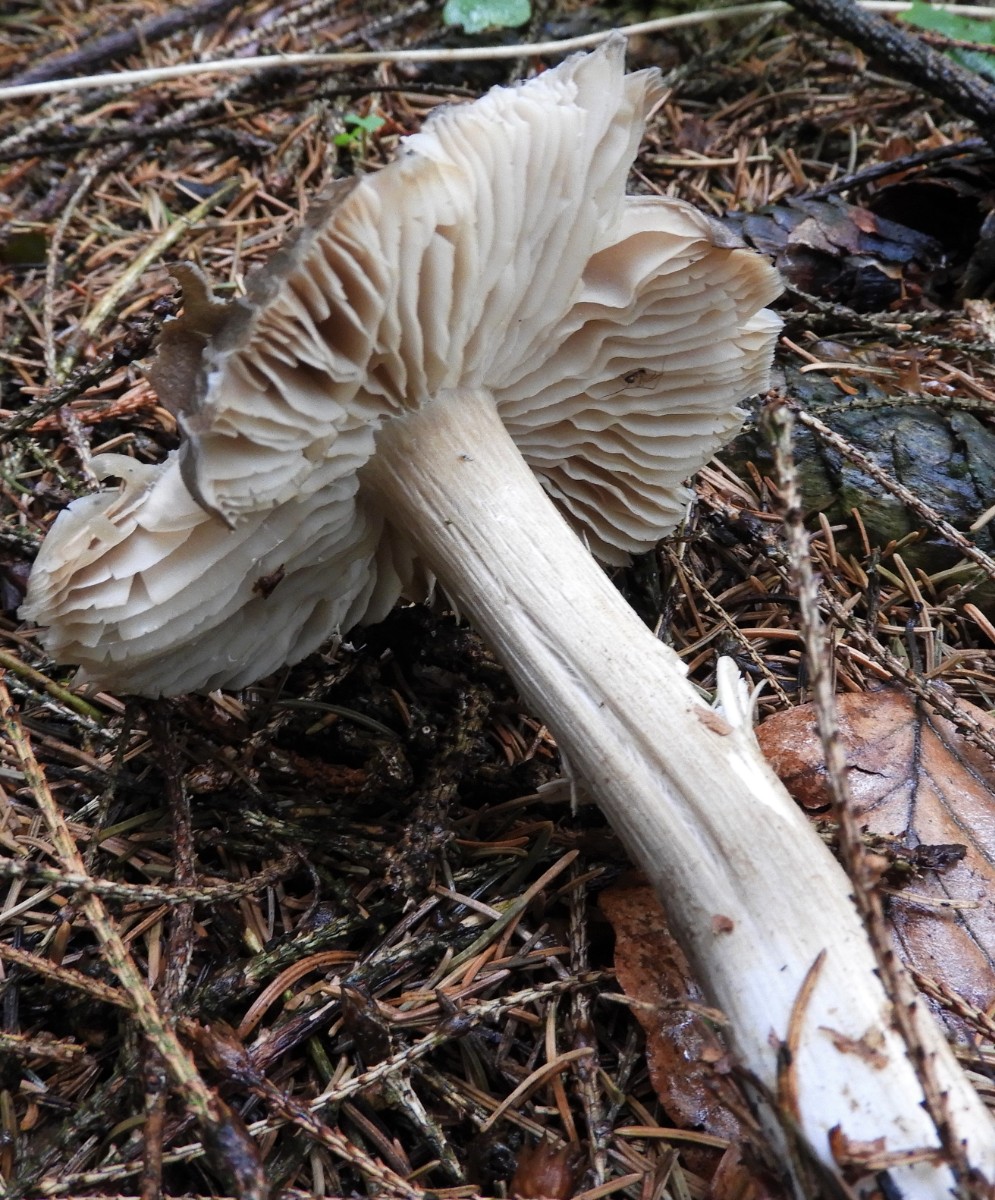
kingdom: Fungi
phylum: Basidiomycota
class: Agaricomycetes
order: Agaricales
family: Tricholomataceae
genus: Megacollybia
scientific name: Megacollybia platyphylla
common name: bredbladet væbnerhat
